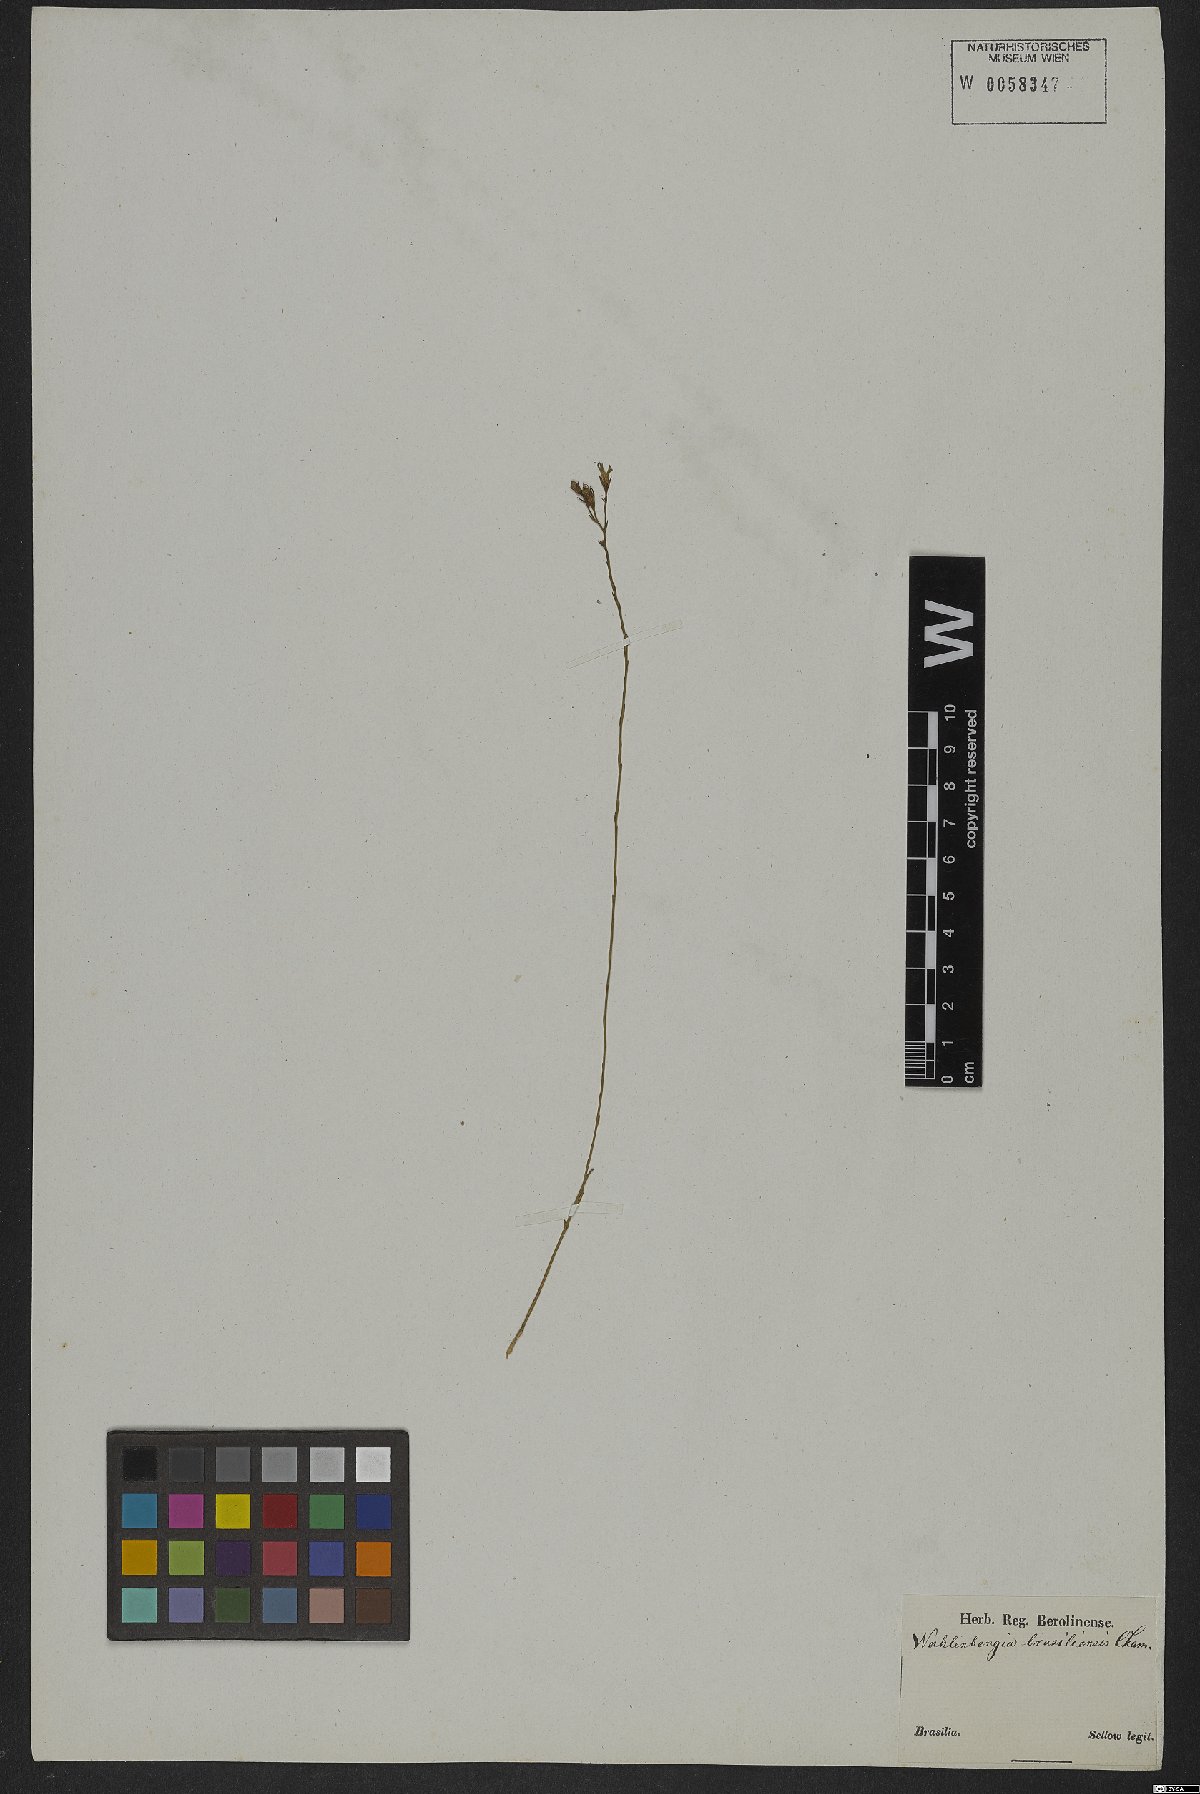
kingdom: Plantae
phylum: Tracheophyta
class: Magnoliopsida
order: Asterales
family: Campanulaceae
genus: Wahlenbergia
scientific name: Wahlenbergia brasiliensis
